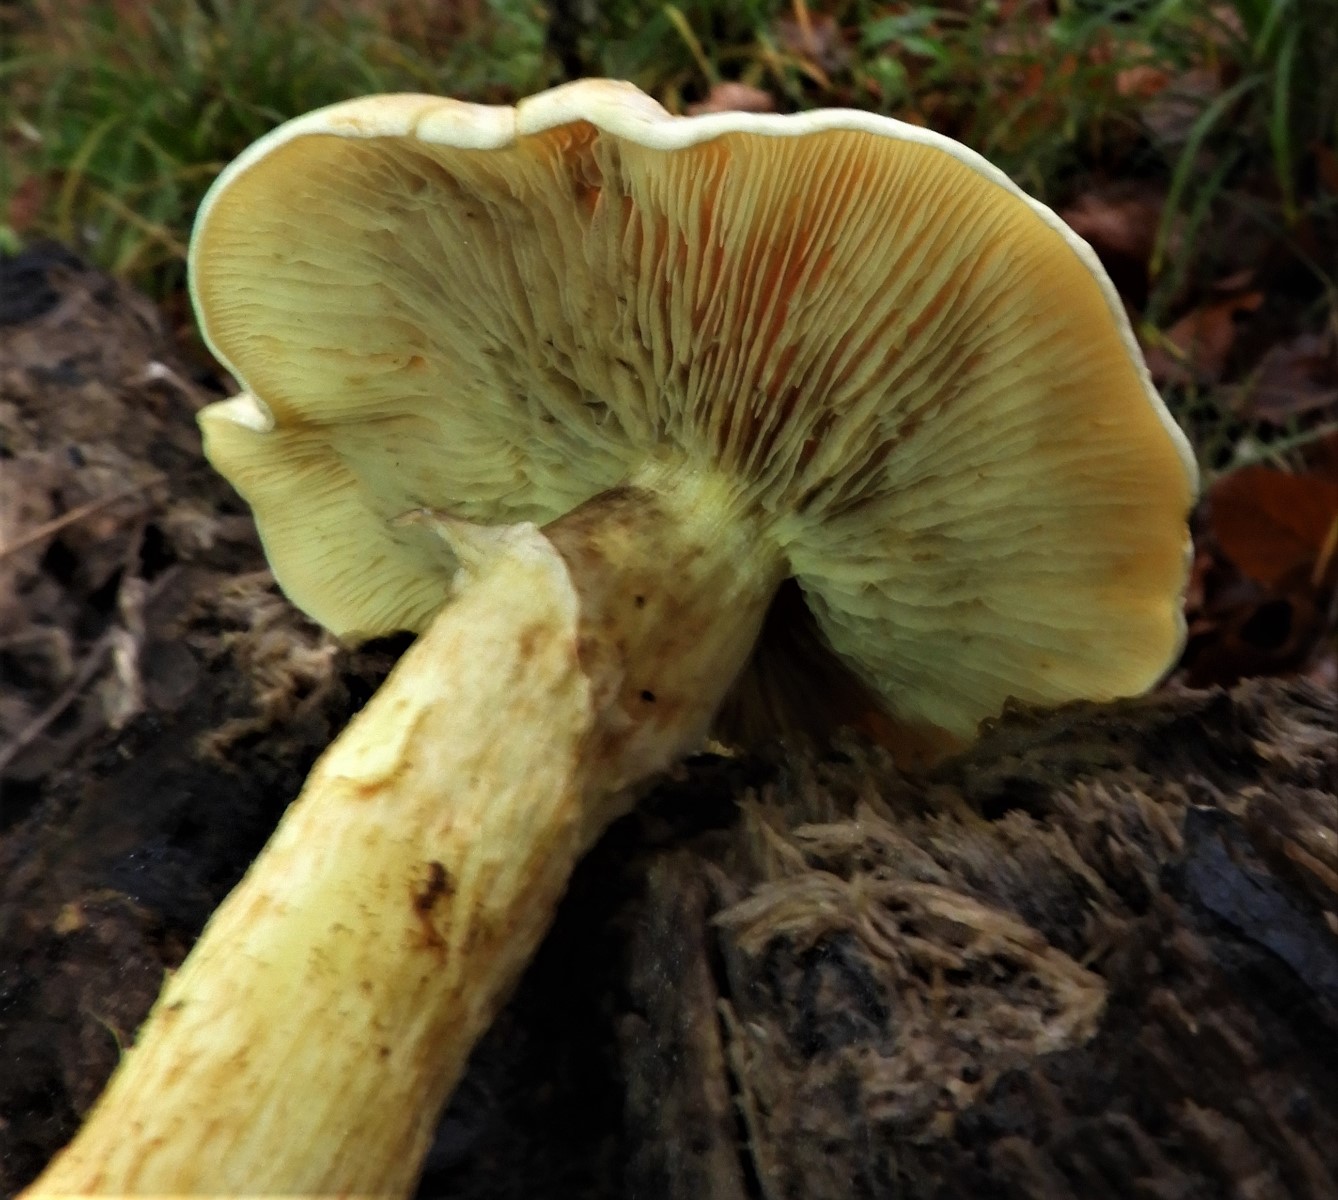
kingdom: Fungi
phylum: Basidiomycota
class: Agaricomycetes
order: Agaricales
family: Strophariaceae
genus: Hypholoma
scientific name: Hypholoma fasciculare
